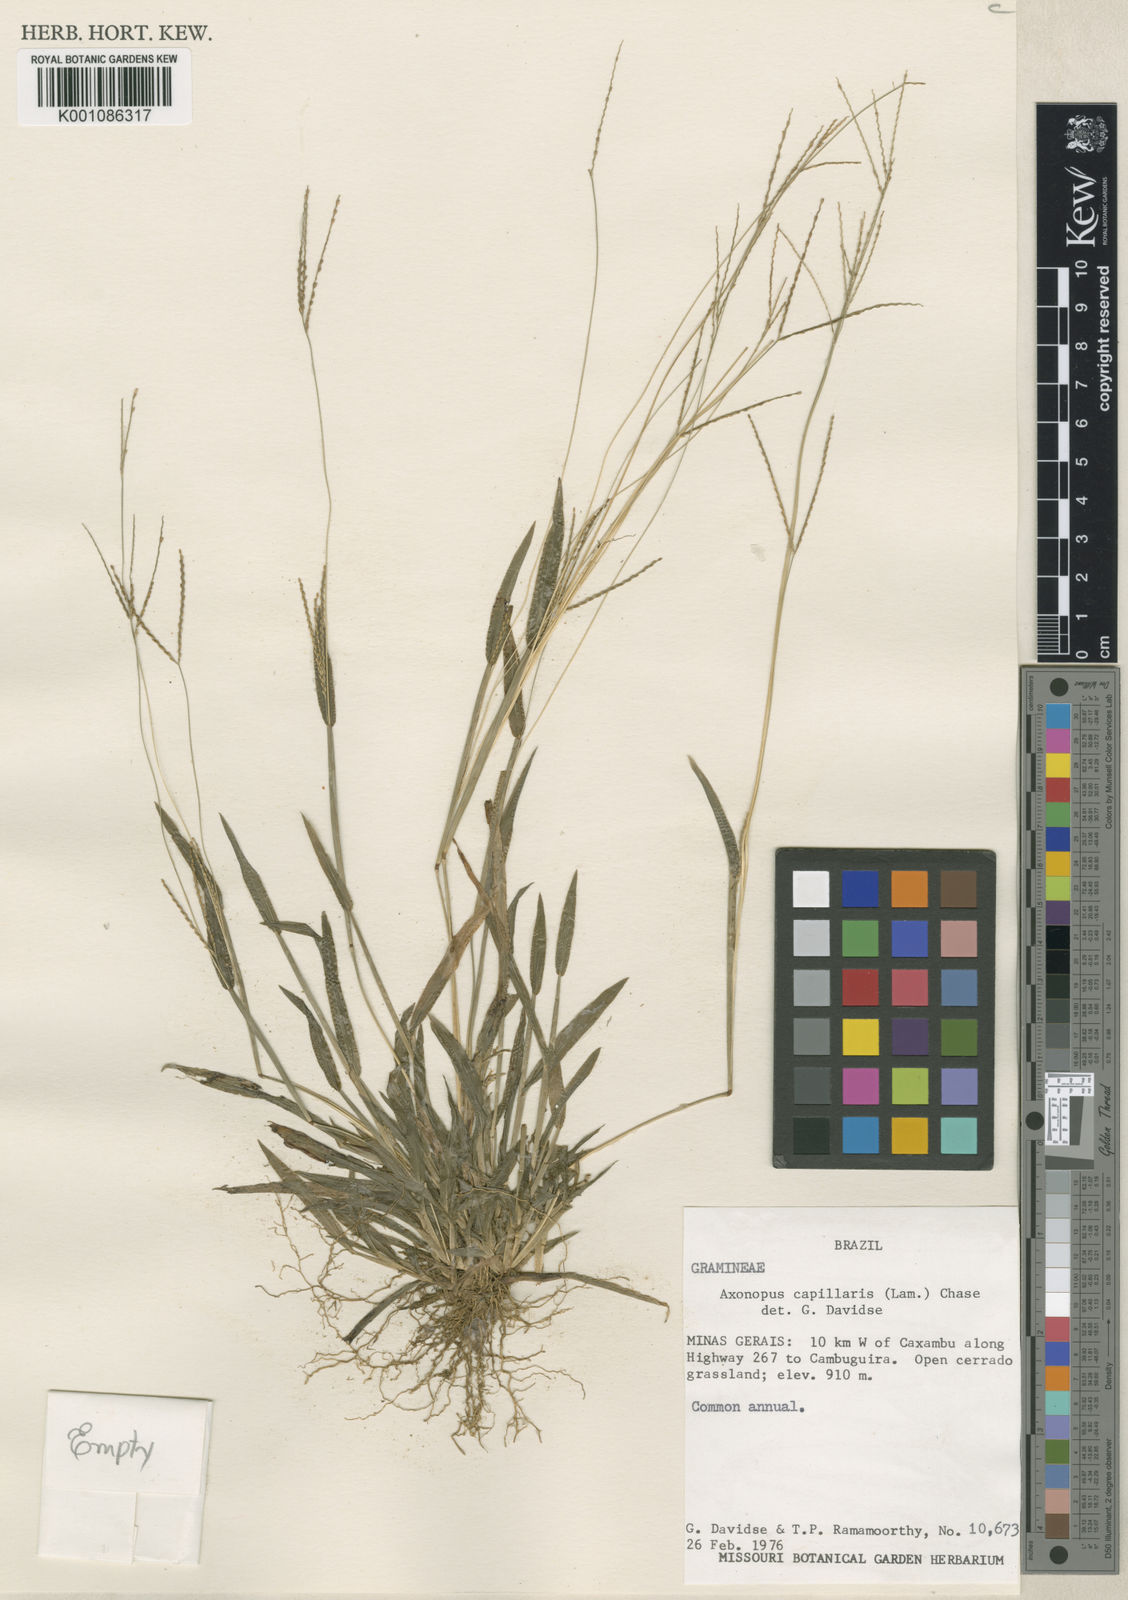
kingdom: Plantae
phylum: Tracheophyta
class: Liliopsida
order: Poales
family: Poaceae
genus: Axonopus
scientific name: Axonopus capillaris
